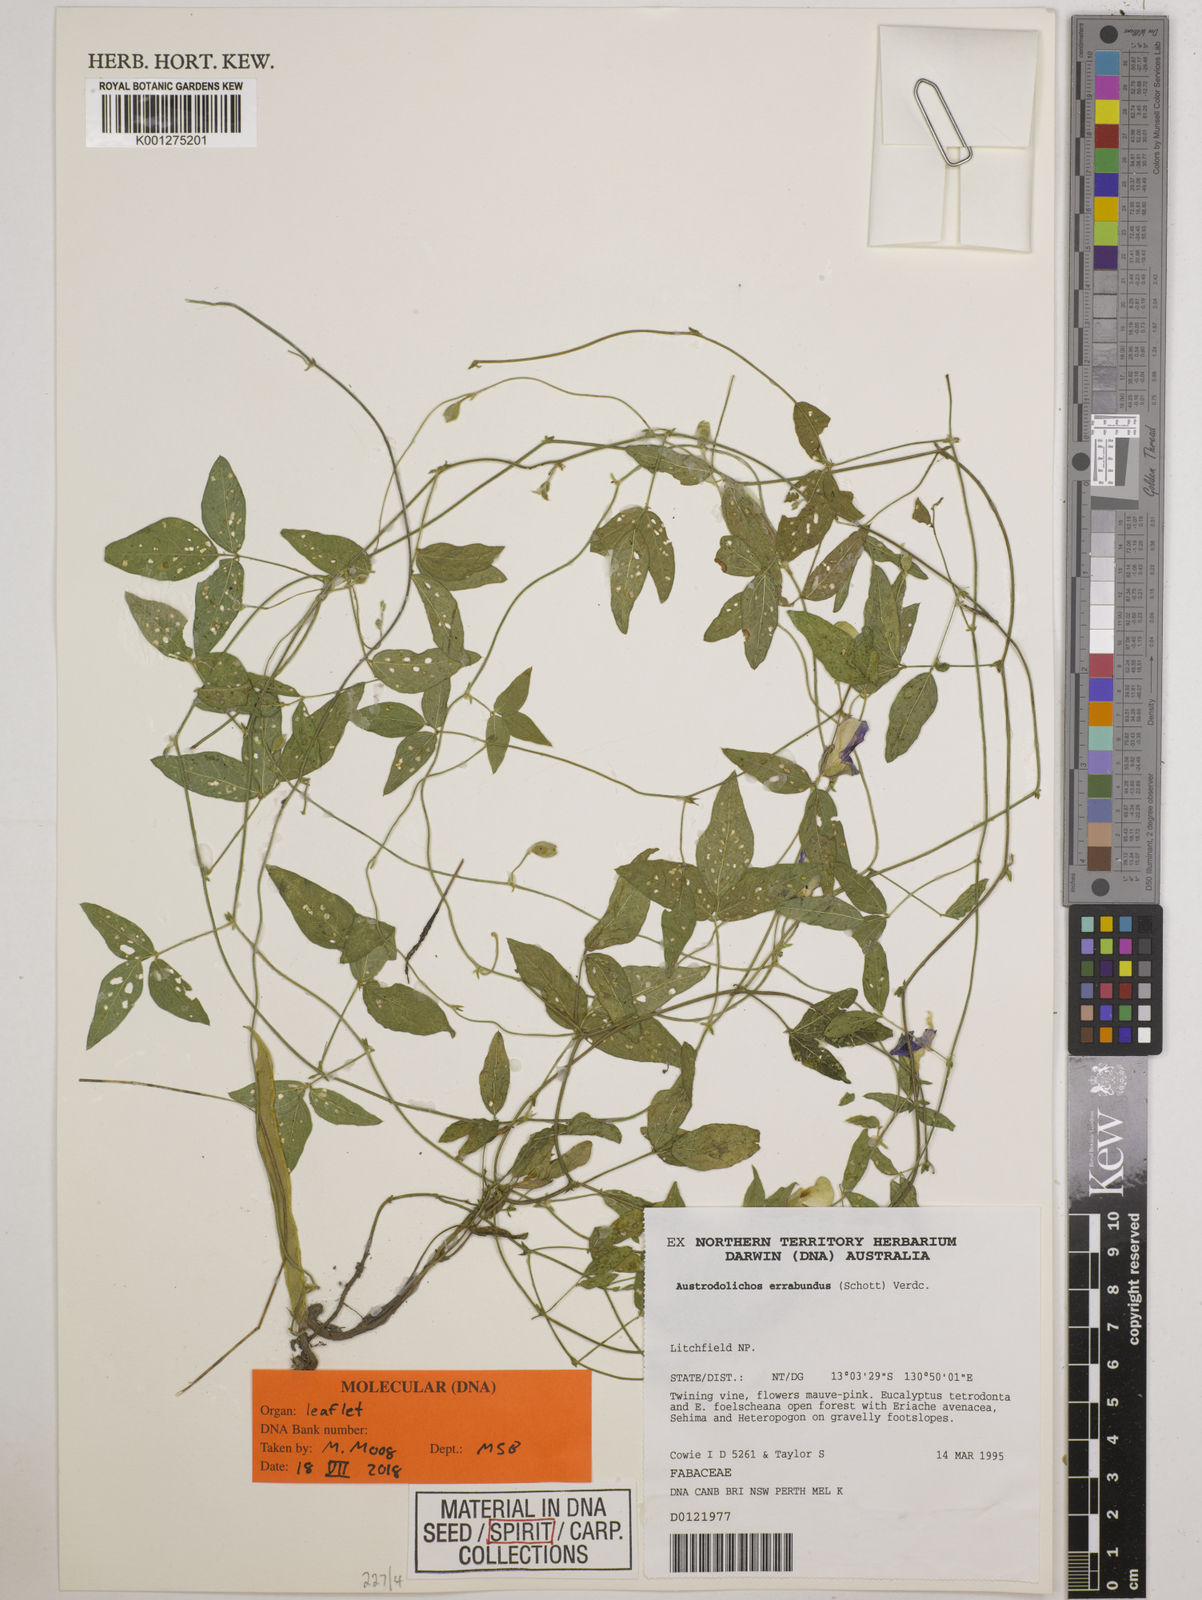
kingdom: Plantae
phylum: Tracheophyta
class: Magnoliopsida
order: Fabales
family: Fabaceae
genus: Austrodolichos
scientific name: Austrodolichos errabundus
